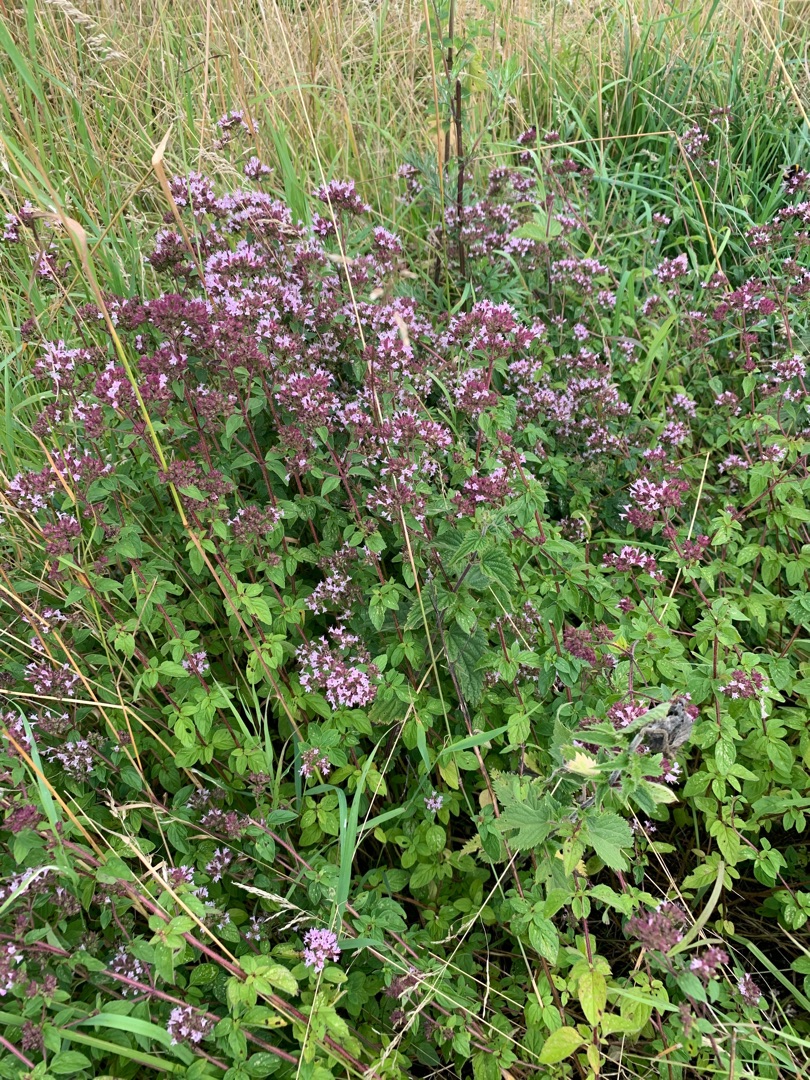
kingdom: Plantae
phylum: Tracheophyta
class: Magnoliopsida
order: Lamiales
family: Lamiaceae
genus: Origanum
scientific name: Origanum vulgare
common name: Merian
